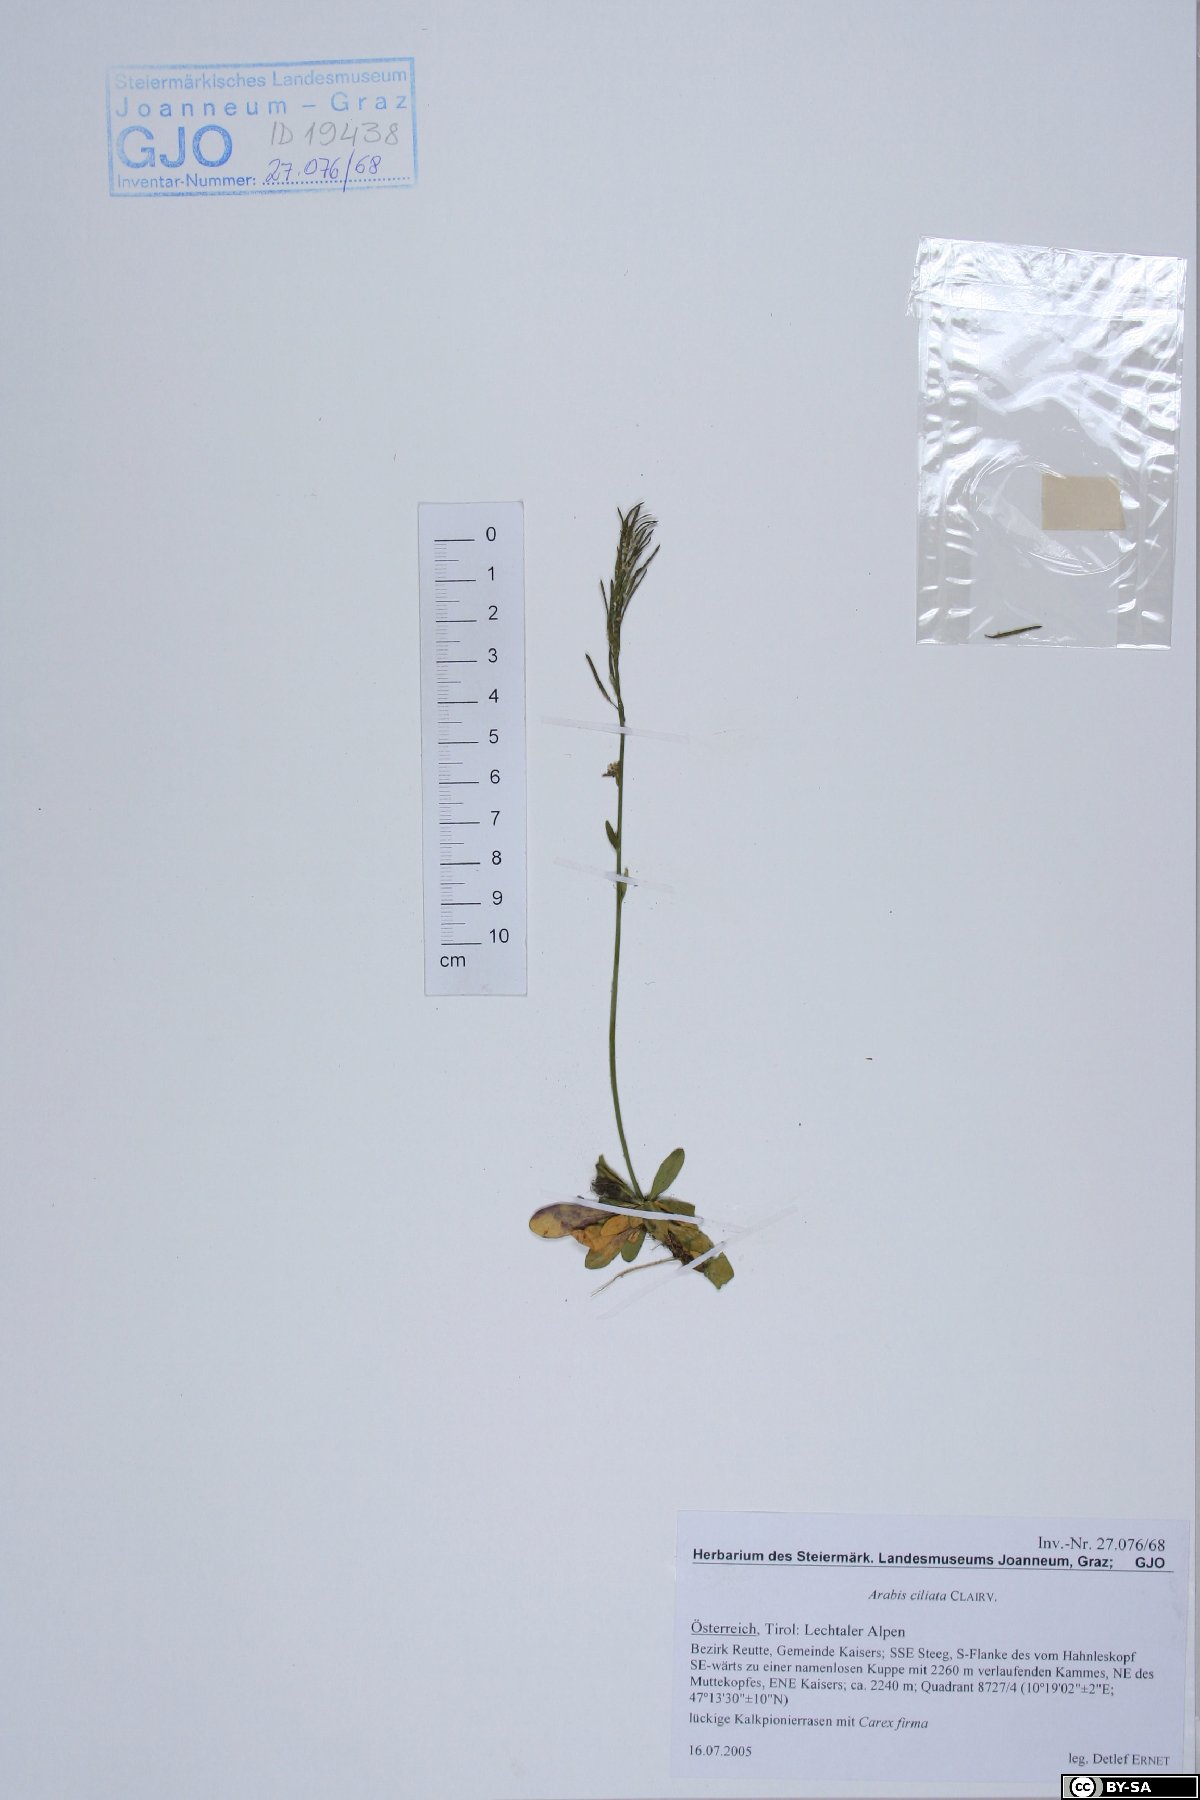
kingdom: Plantae
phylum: Tracheophyta
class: Magnoliopsida
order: Brassicales
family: Brassicaceae
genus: Arabis
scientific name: Arabis ciliata
